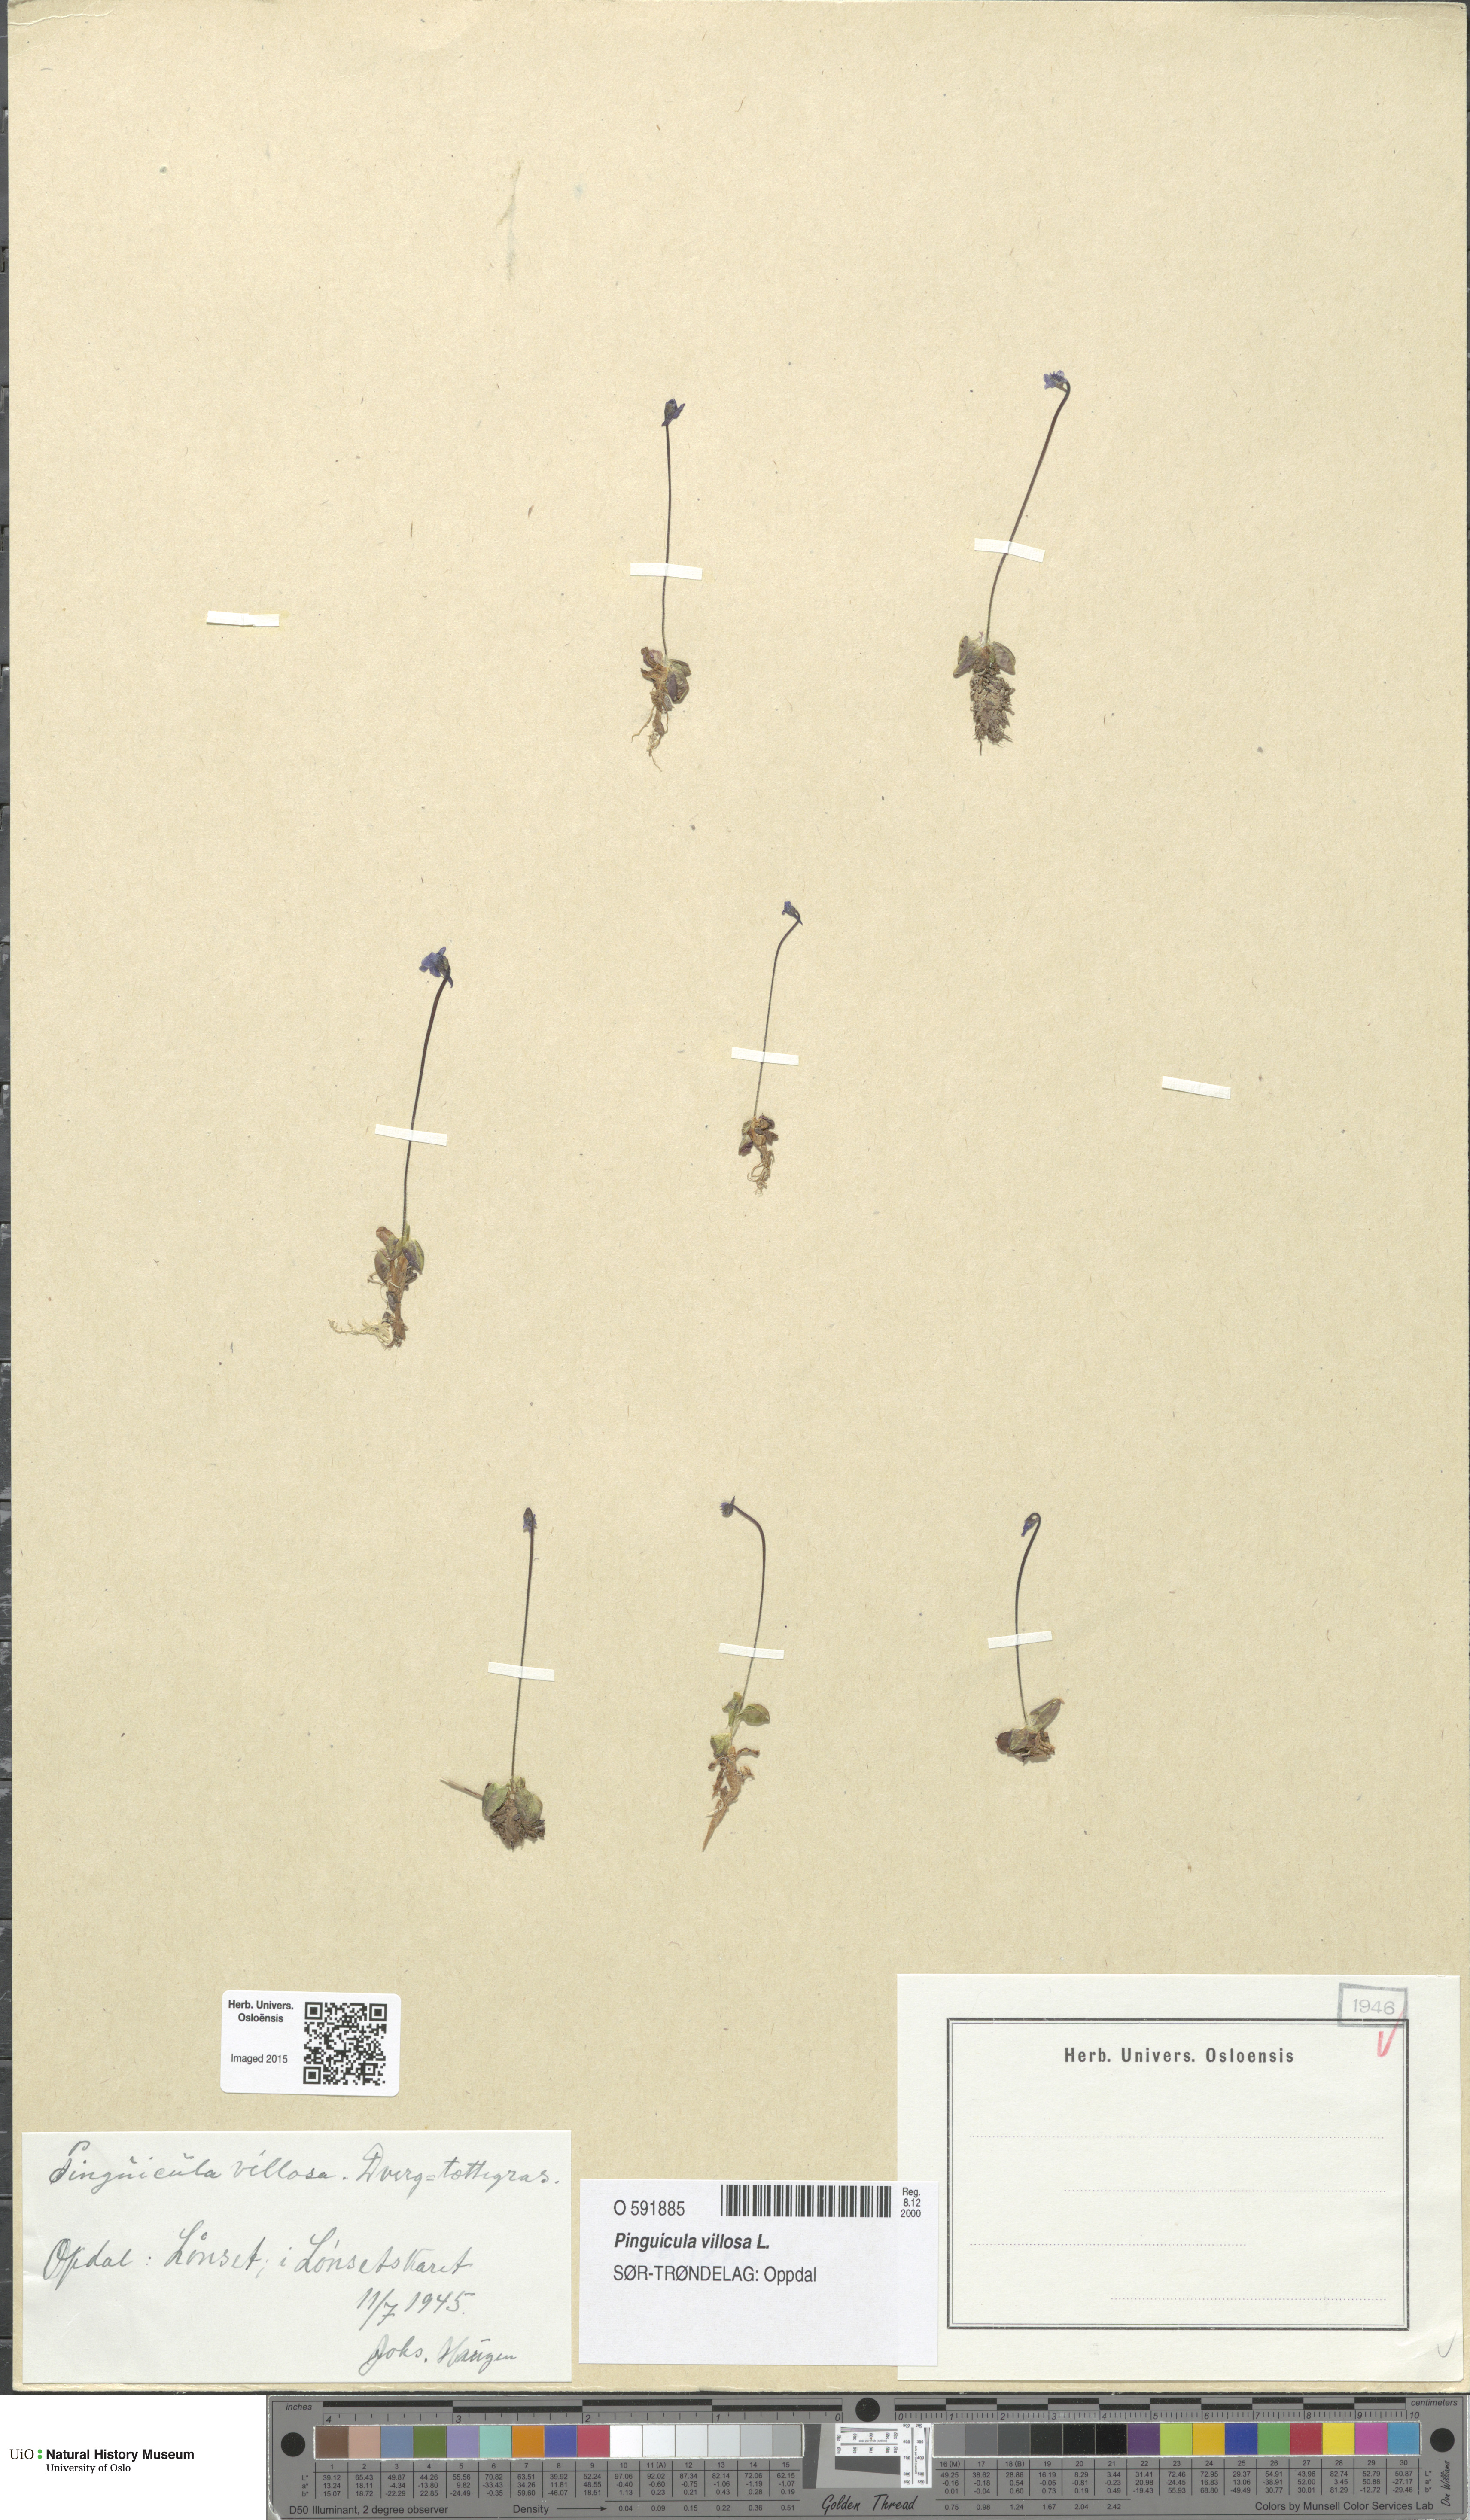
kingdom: Plantae
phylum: Tracheophyta
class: Magnoliopsida
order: Lamiales
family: Lentibulariaceae
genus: Pinguicula
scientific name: Pinguicula villosa
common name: Hairy butterwort
